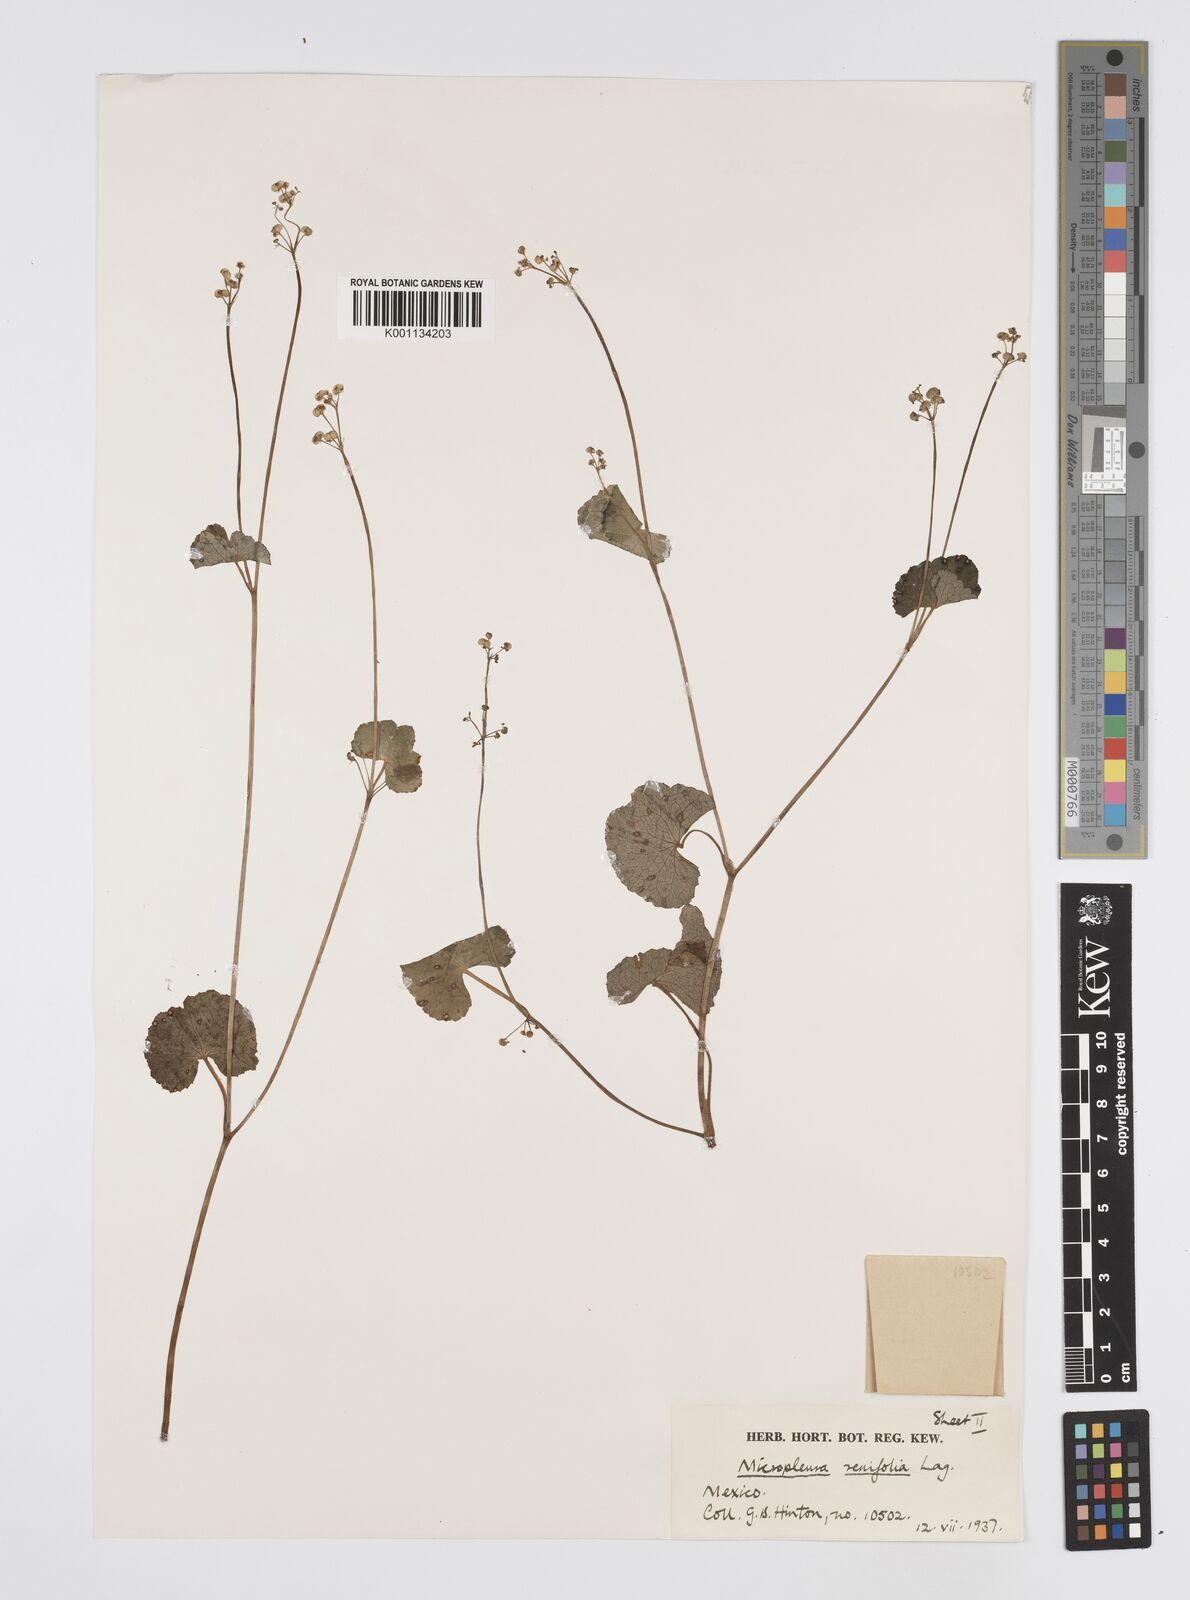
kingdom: Plantae
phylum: Tracheophyta
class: Magnoliopsida
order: Apiales
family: Apiaceae
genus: Micropleura
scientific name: Micropleura renifolia
